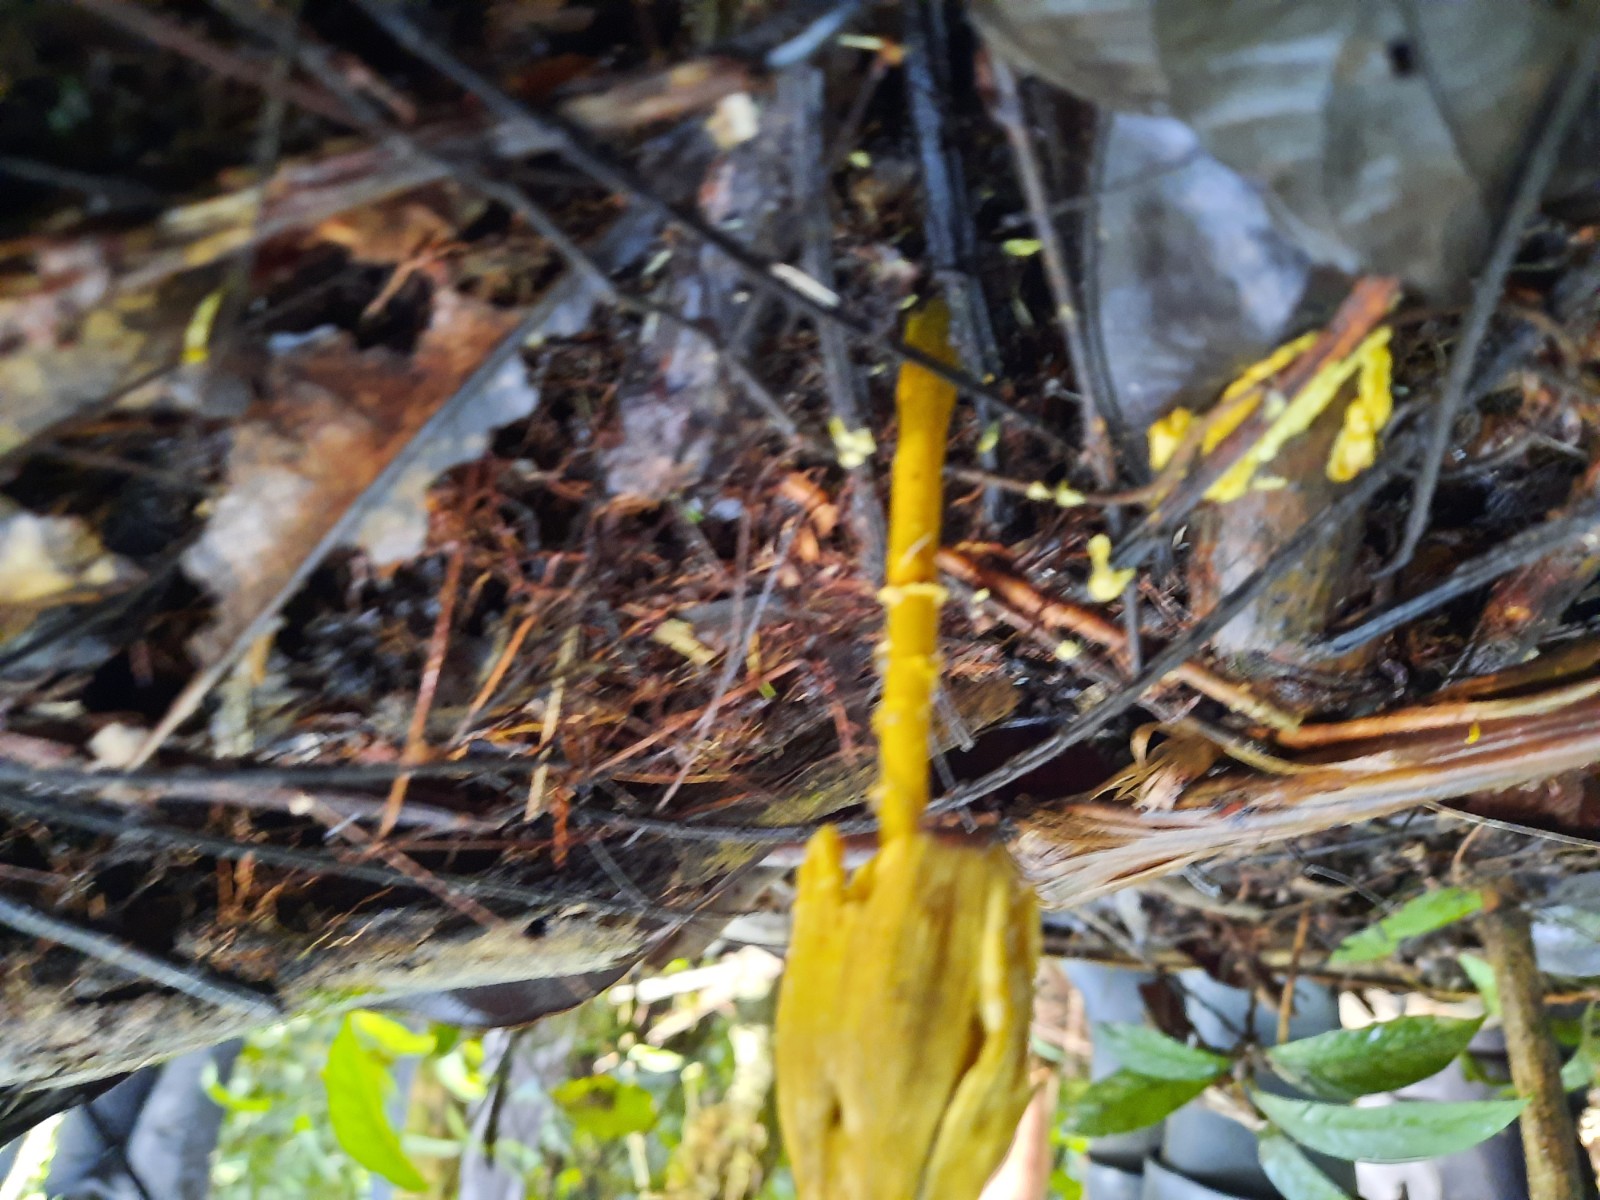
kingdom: Fungi
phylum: Basidiomycota
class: Agaricomycetes
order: Agaricales
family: Agaricaceae
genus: Leucocoprinus
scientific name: Leucocoprinus birnbaumii
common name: gul silkehat
